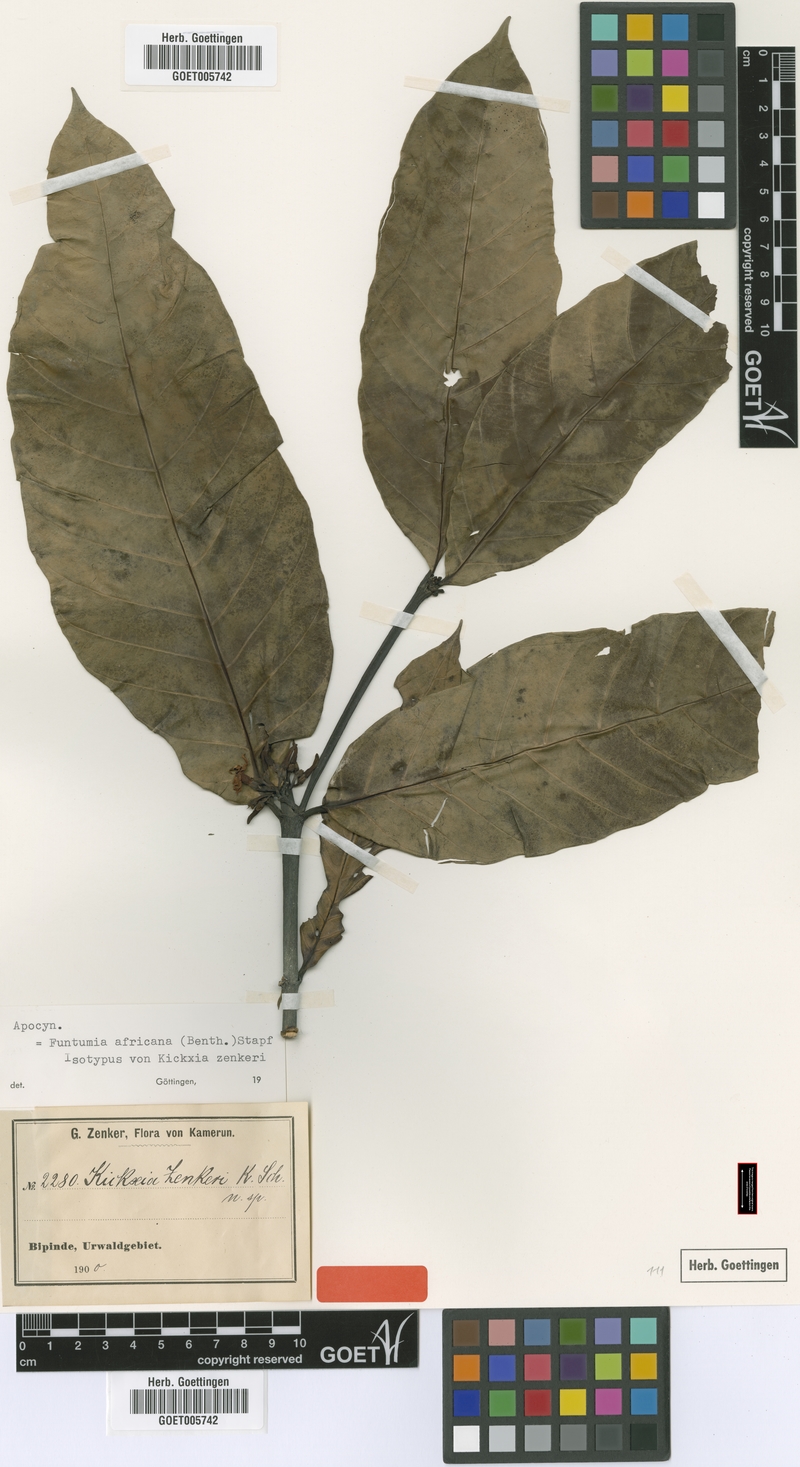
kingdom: Plantae
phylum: Tracheophyta
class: Magnoliopsida
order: Gentianales
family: Apocynaceae
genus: Funtumia
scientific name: Funtumia africana
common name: Lagos-rubber
